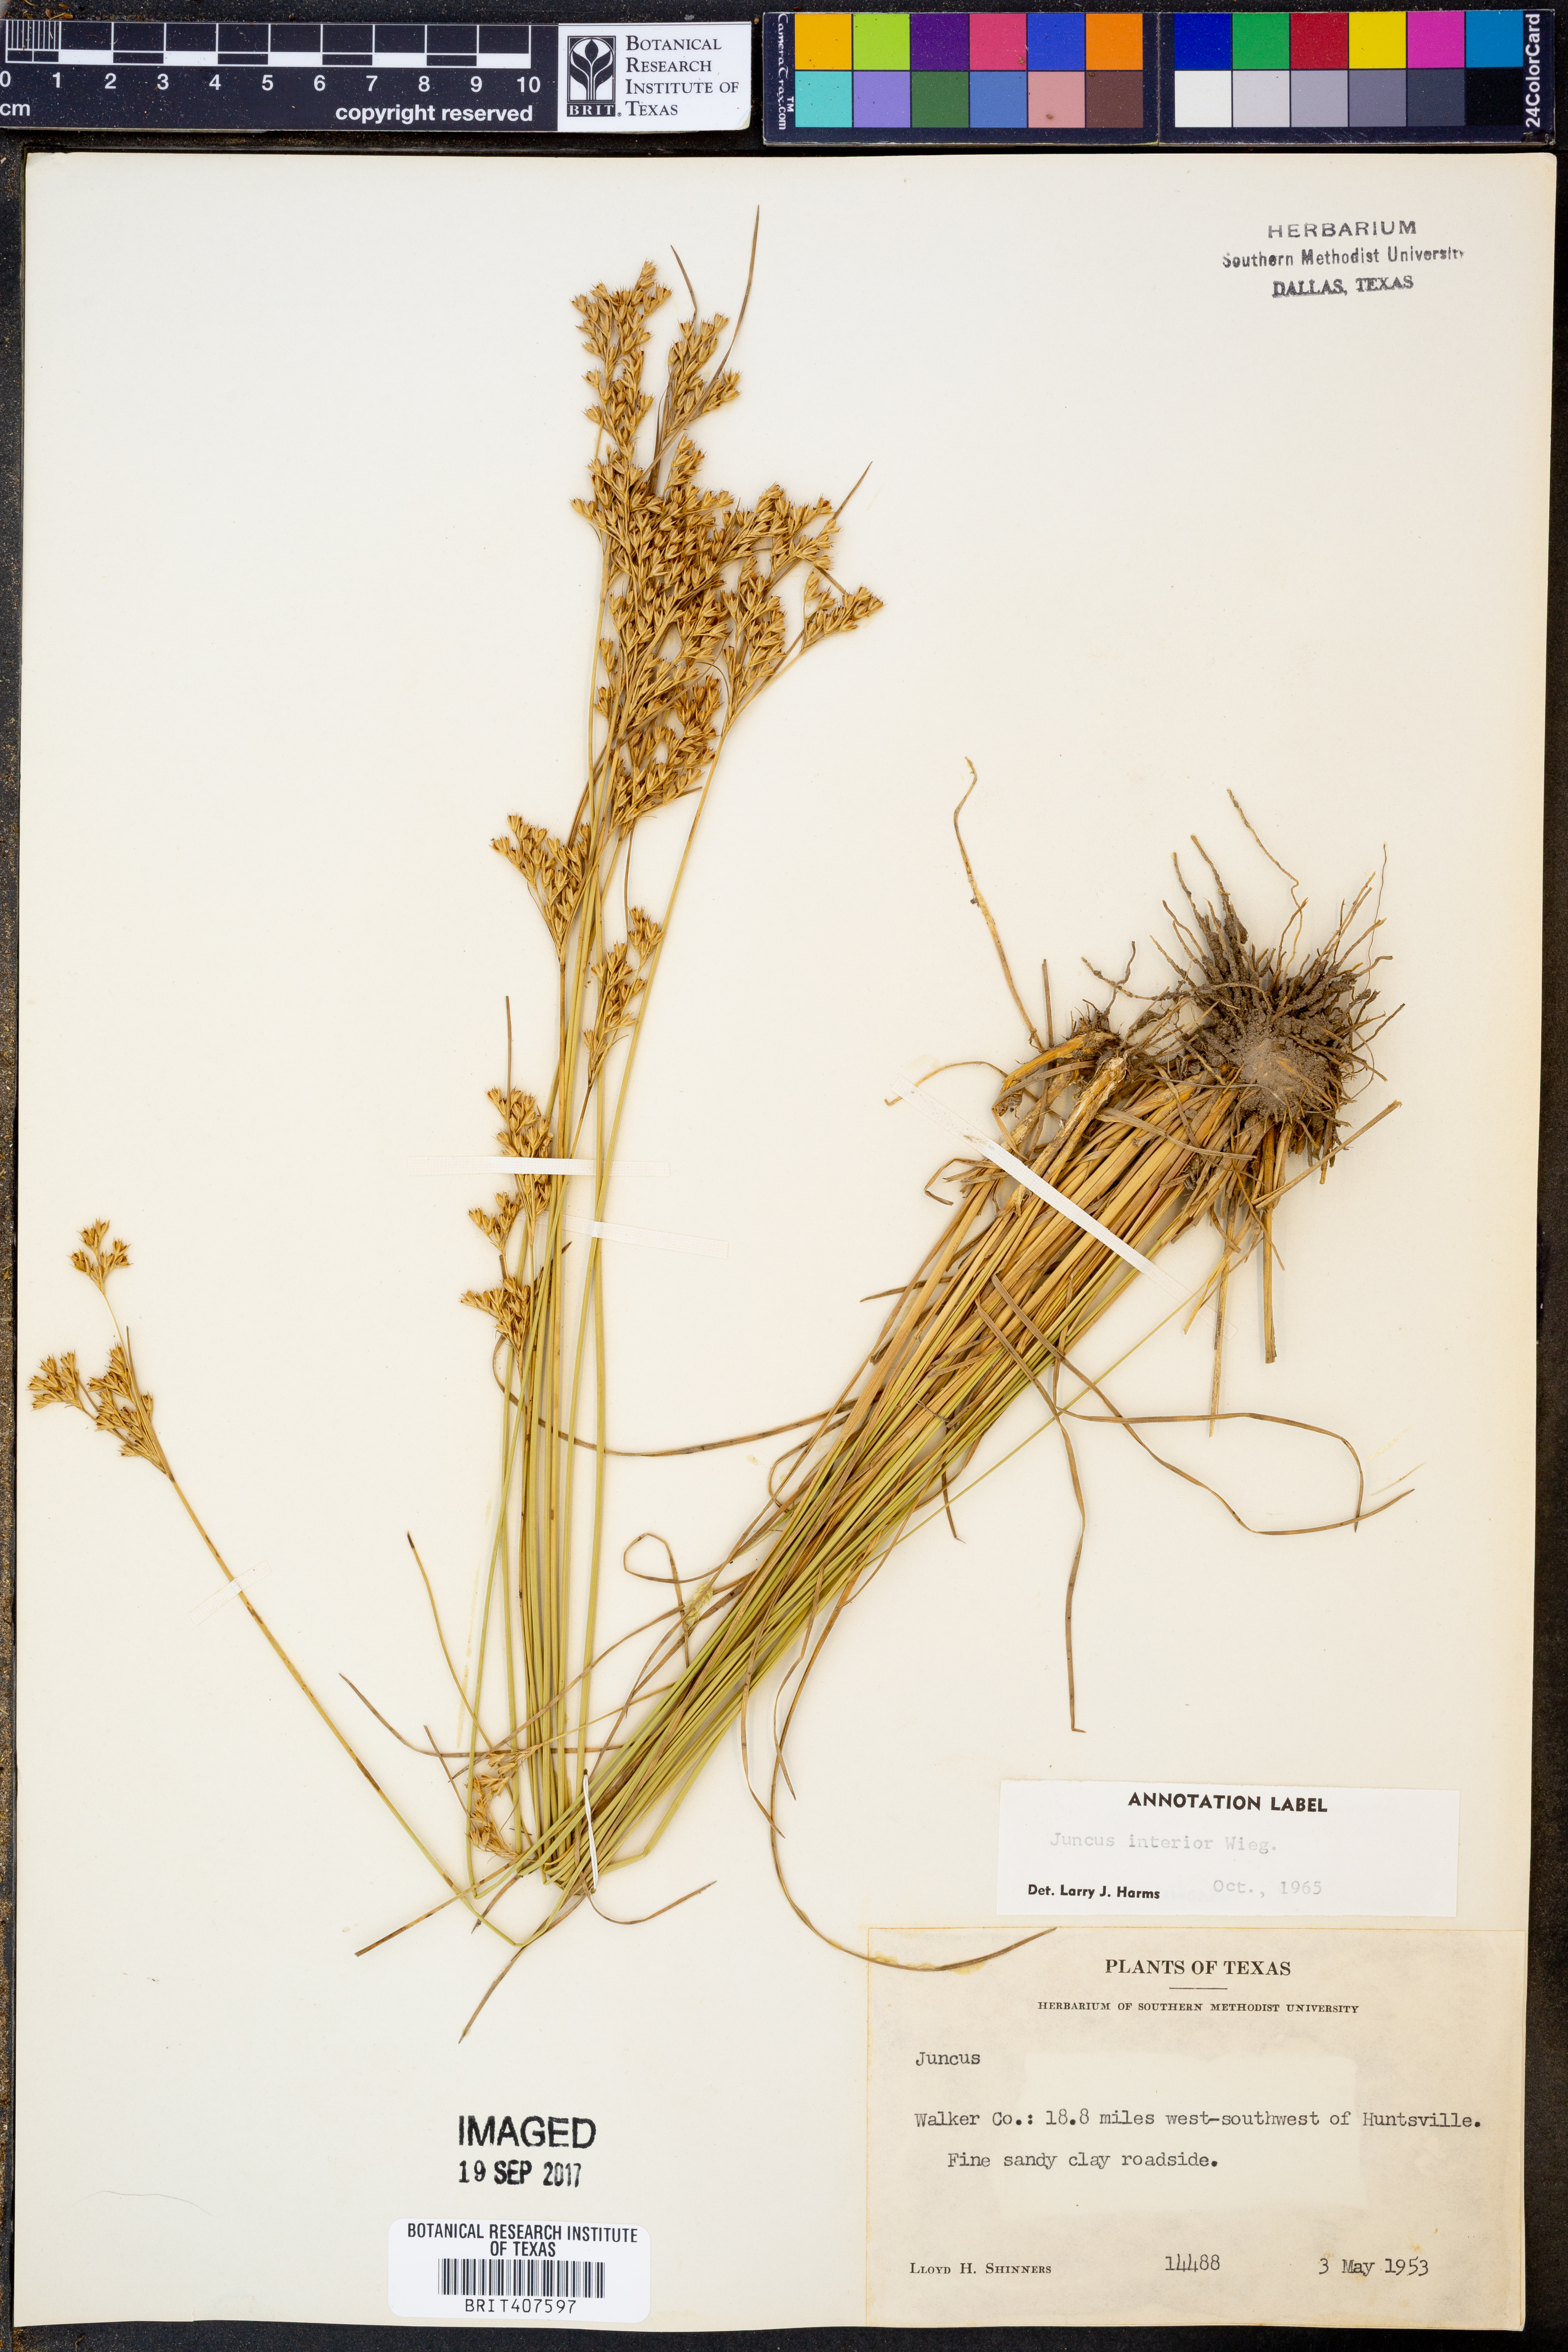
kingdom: Plantae
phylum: Tracheophyta
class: Liliopsida
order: Poales
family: Juncaceae
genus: Juncus
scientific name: Juncus interior
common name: Interior rush
